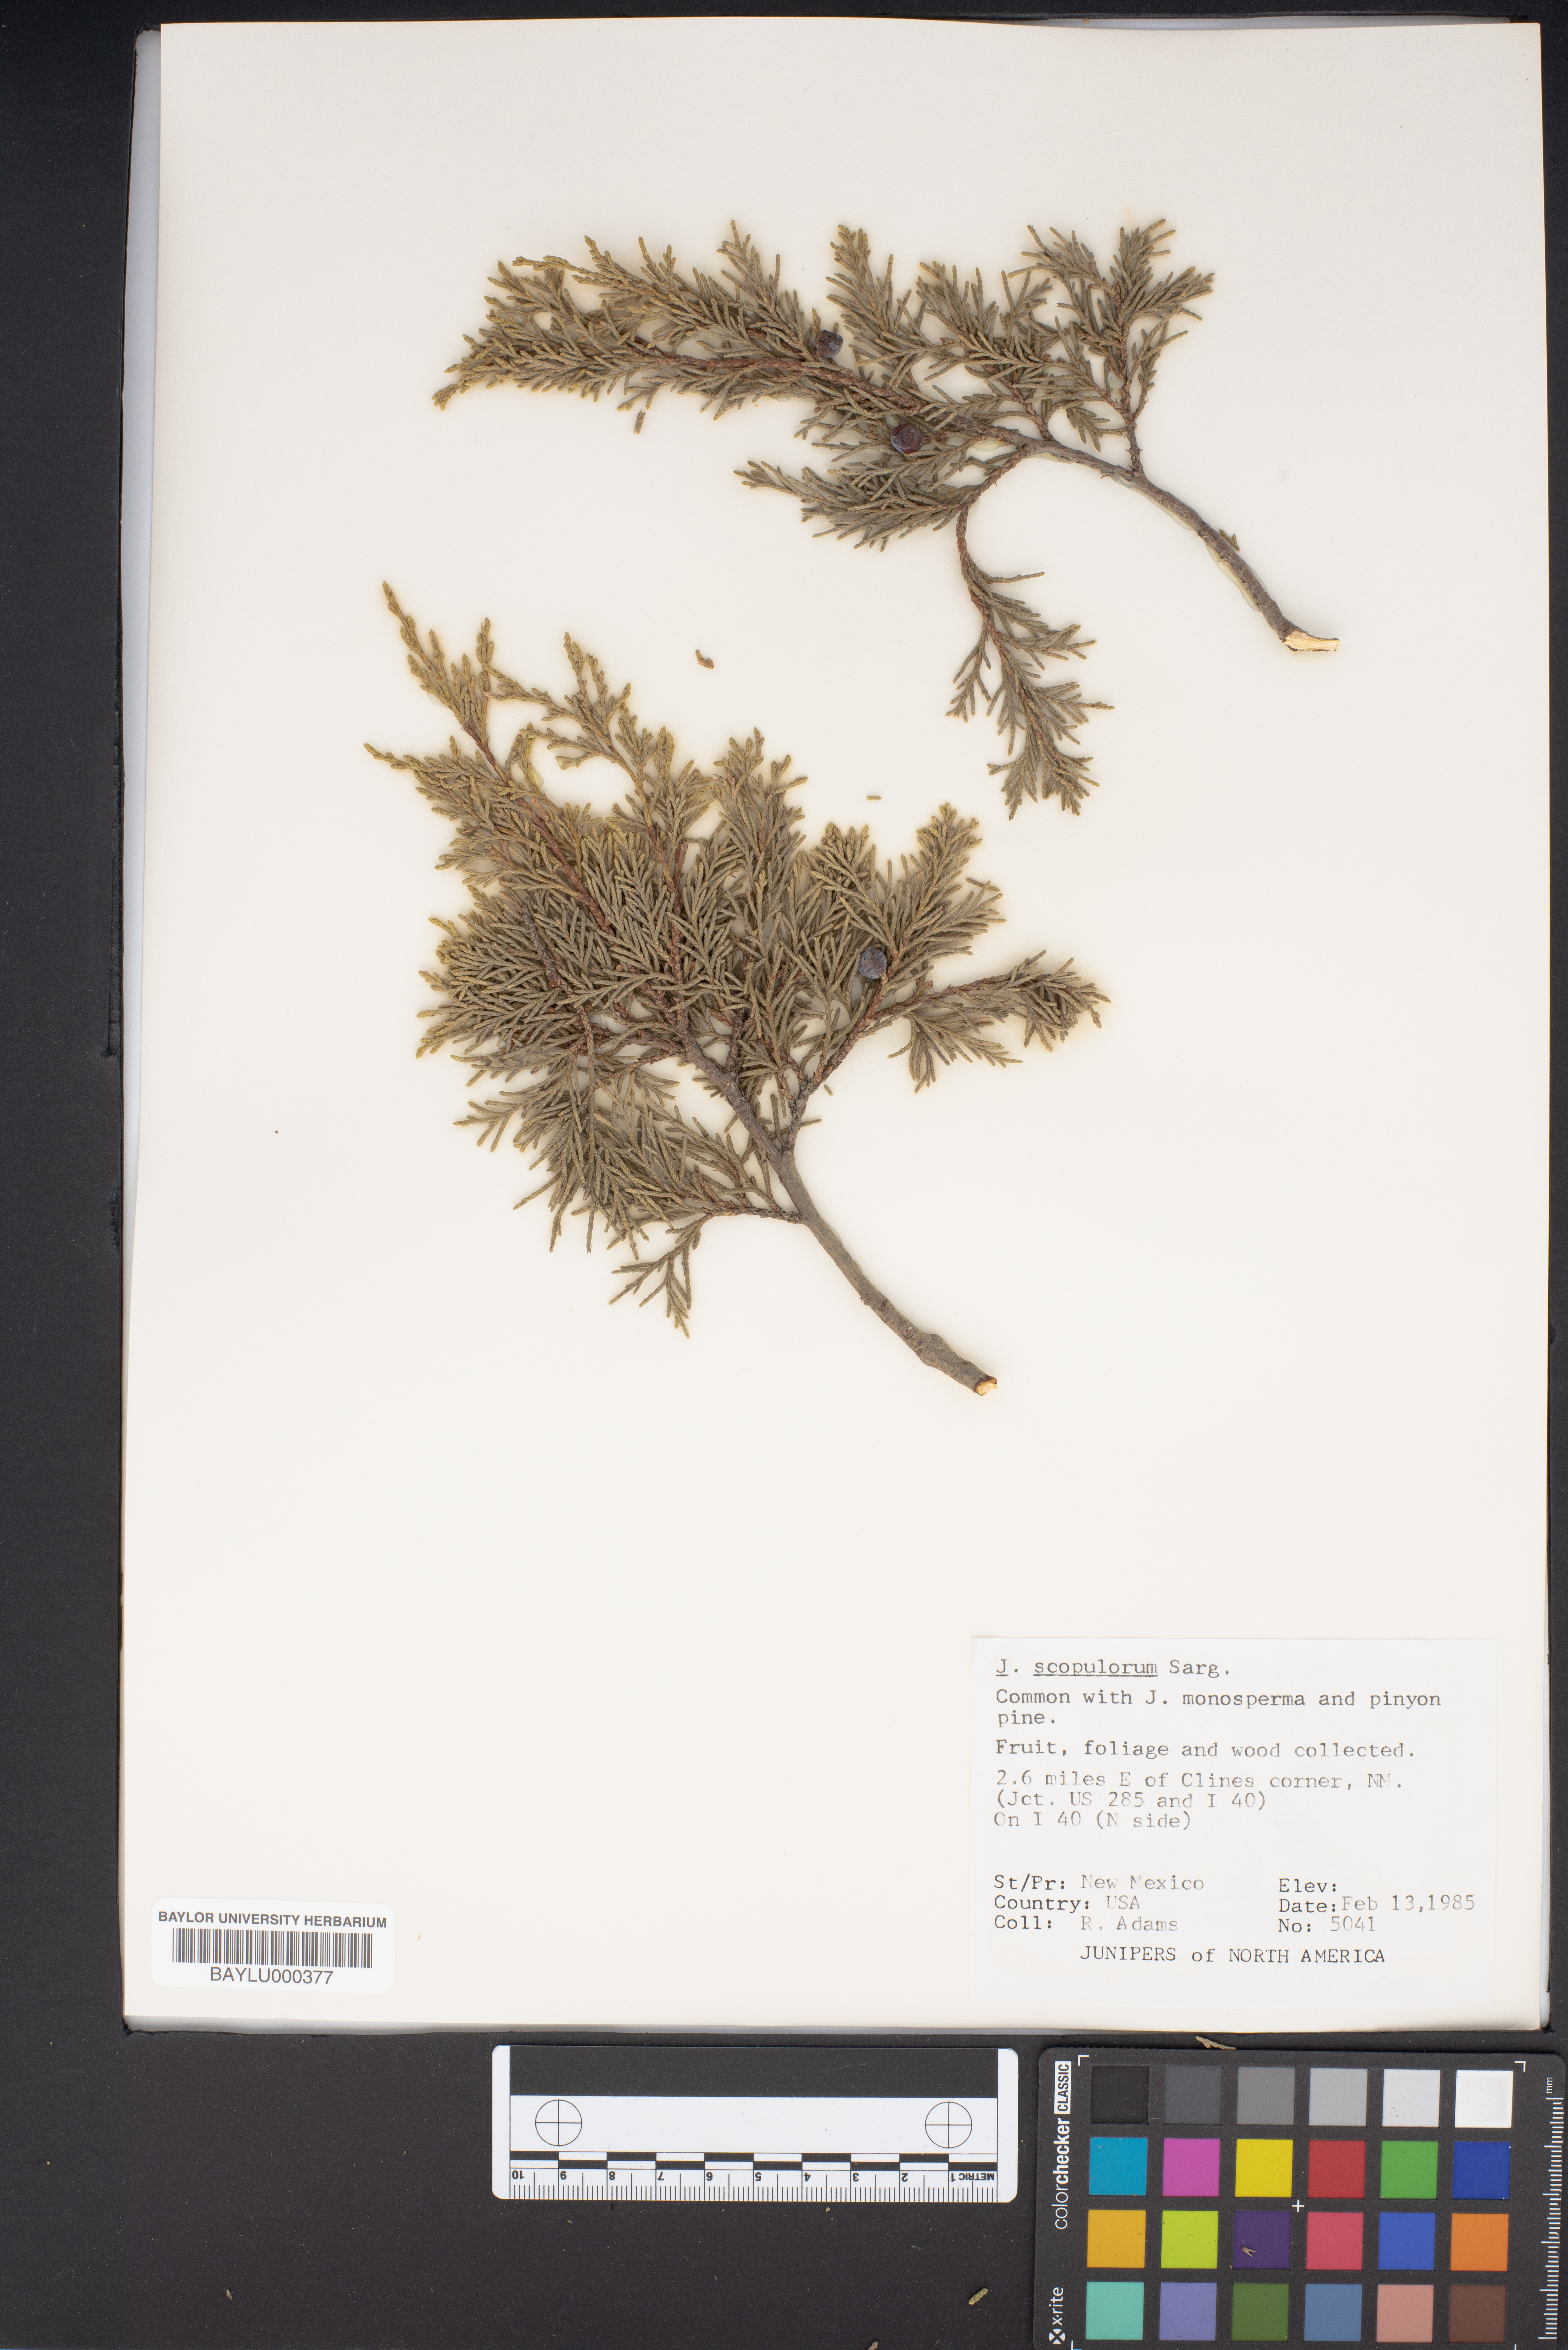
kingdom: Plantae
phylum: Tracheophyta
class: Pinopsida
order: Pinales
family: Cupressaceae
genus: Juniperus
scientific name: Juniperus scopulorum
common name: Rocky mountain juniper
